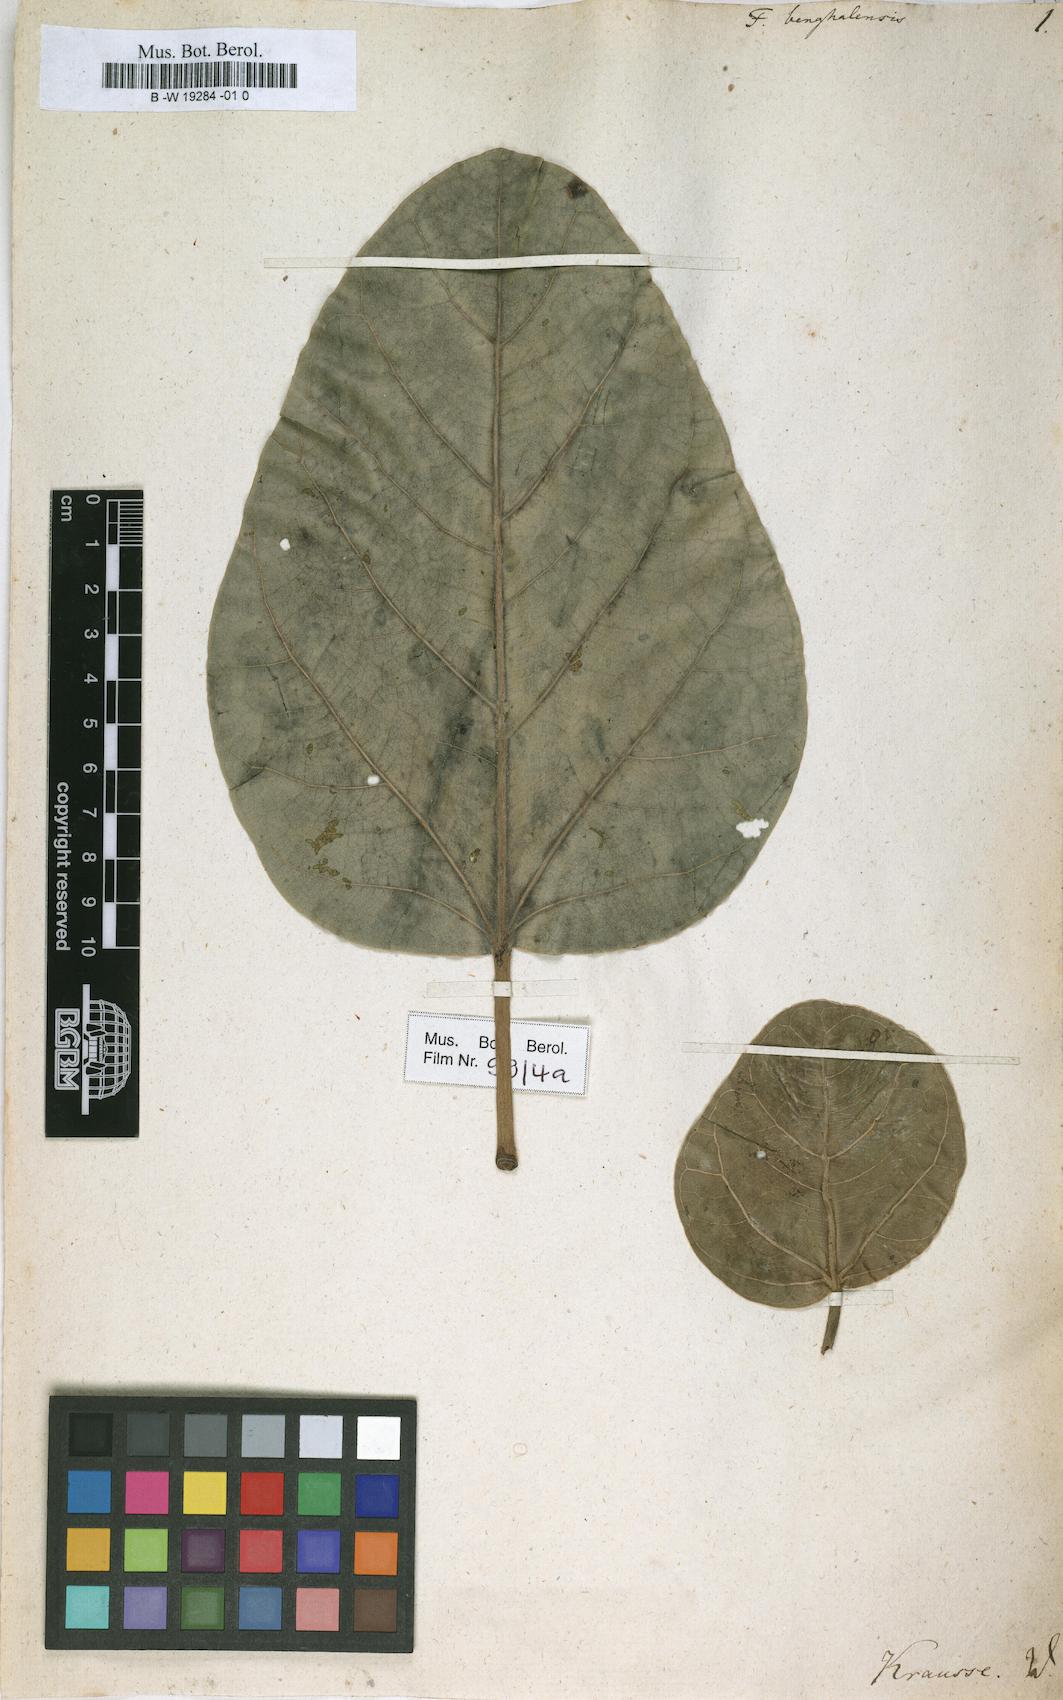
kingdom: Plantae
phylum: Tracheophyta
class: Magnoliopsida
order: Rosales
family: Moraceae
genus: Ficus
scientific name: Ficus benghalensis
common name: Indian banyan
